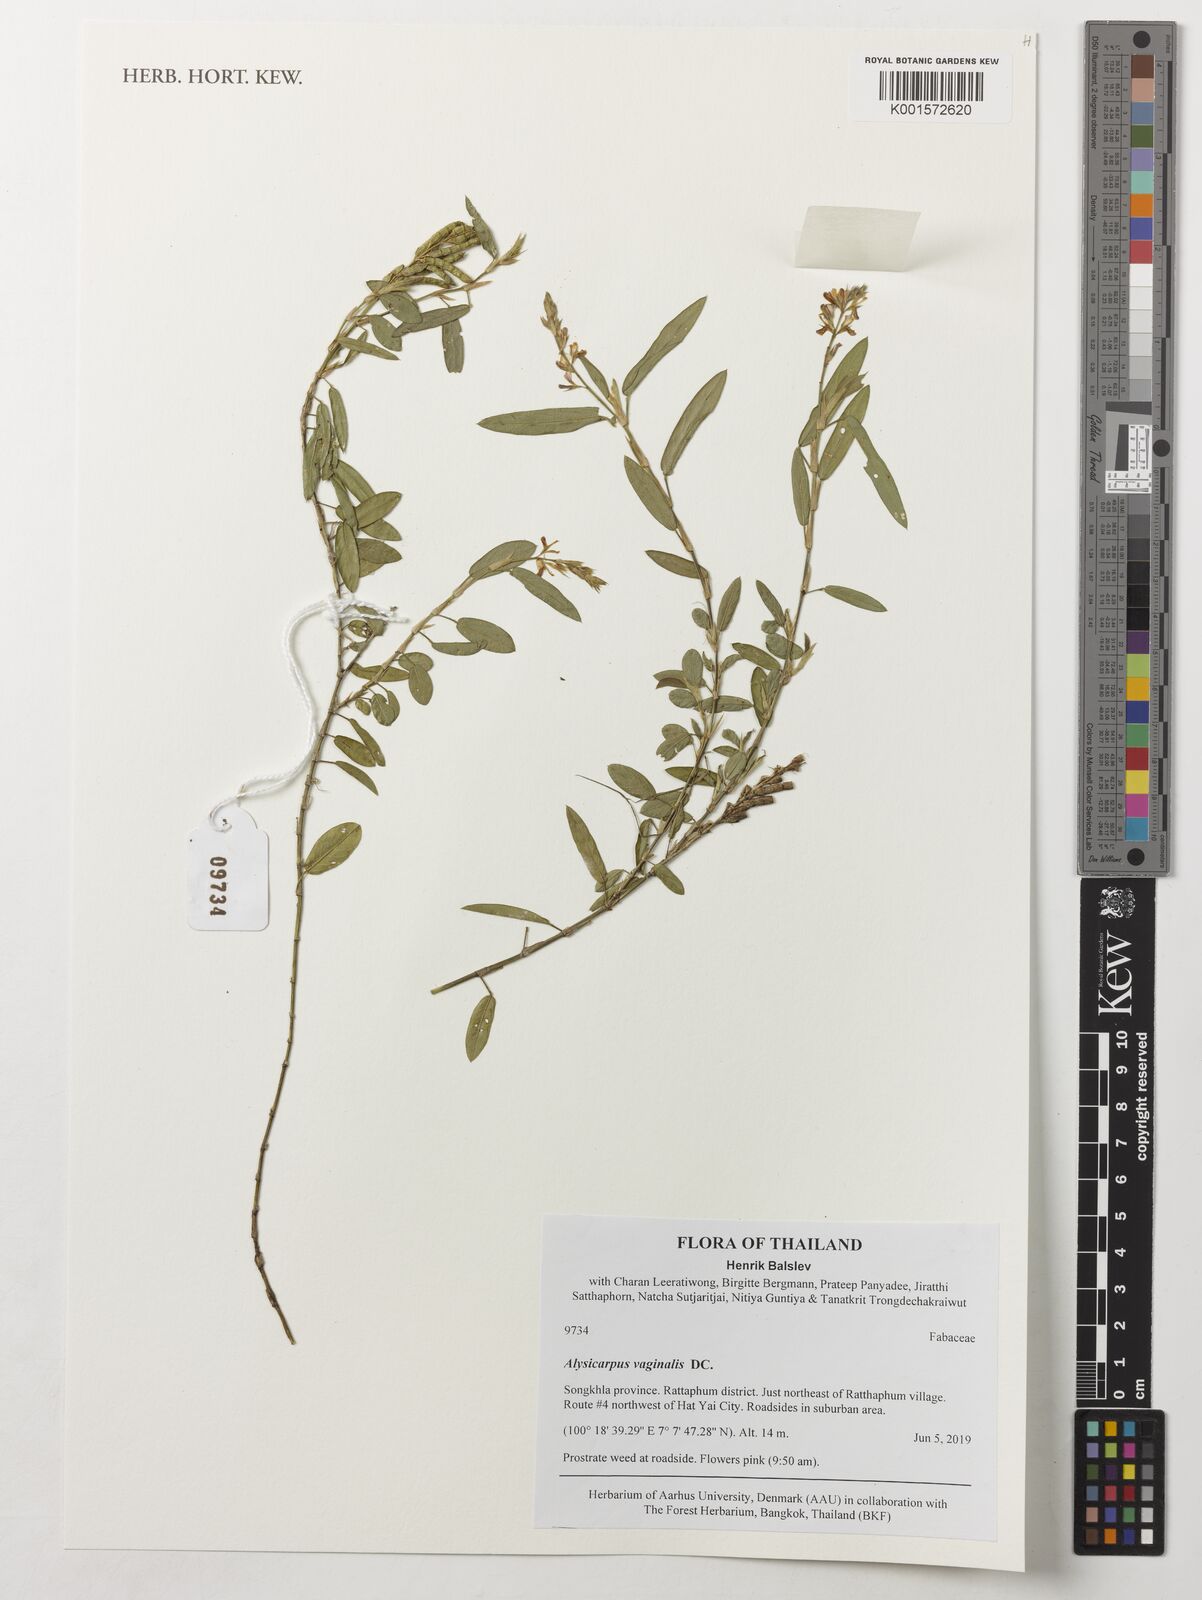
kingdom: Plantae
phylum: Tracheophyta
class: Magnoliopsida
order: Fabales
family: Fabaceae
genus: Alysicarpus
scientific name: Alysicarpus vaginalis
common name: White moneywort
